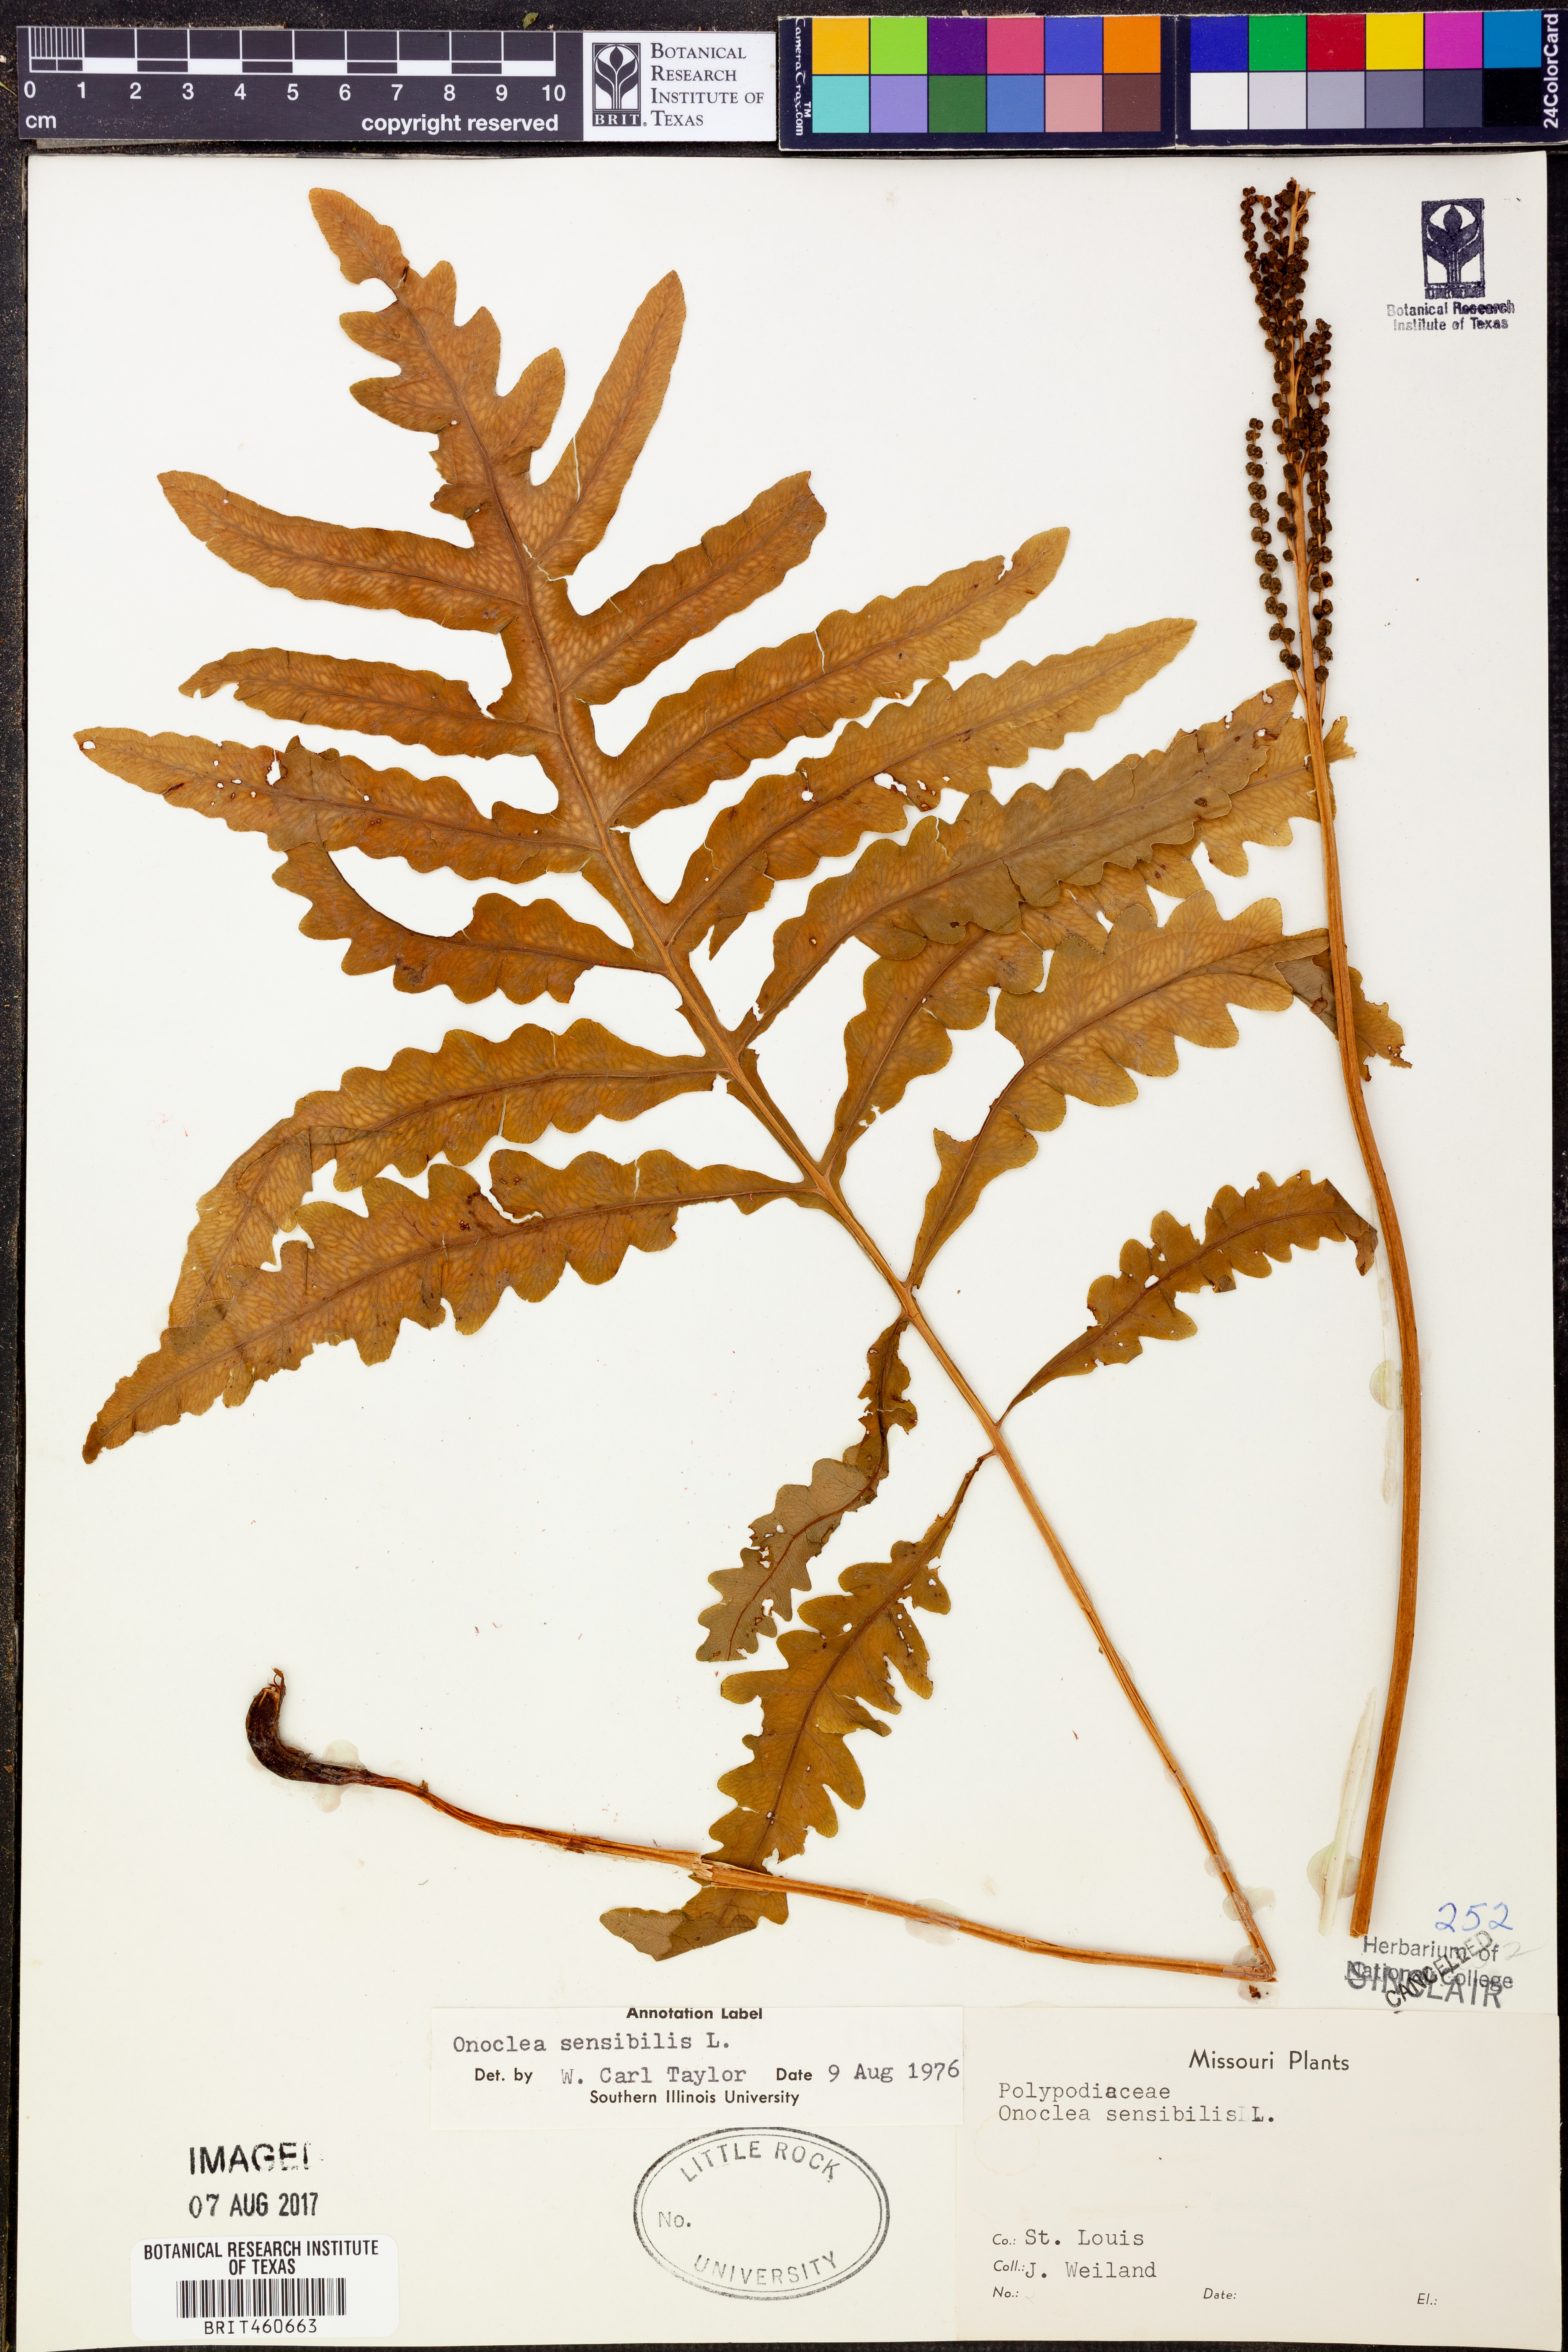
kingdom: Plantae
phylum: Tracheophyta
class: Polypodiopsida
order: Polypodiales
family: Onocleaceae
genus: Onoclea
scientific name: Onoclea sensibilis
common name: Sensitive fern
